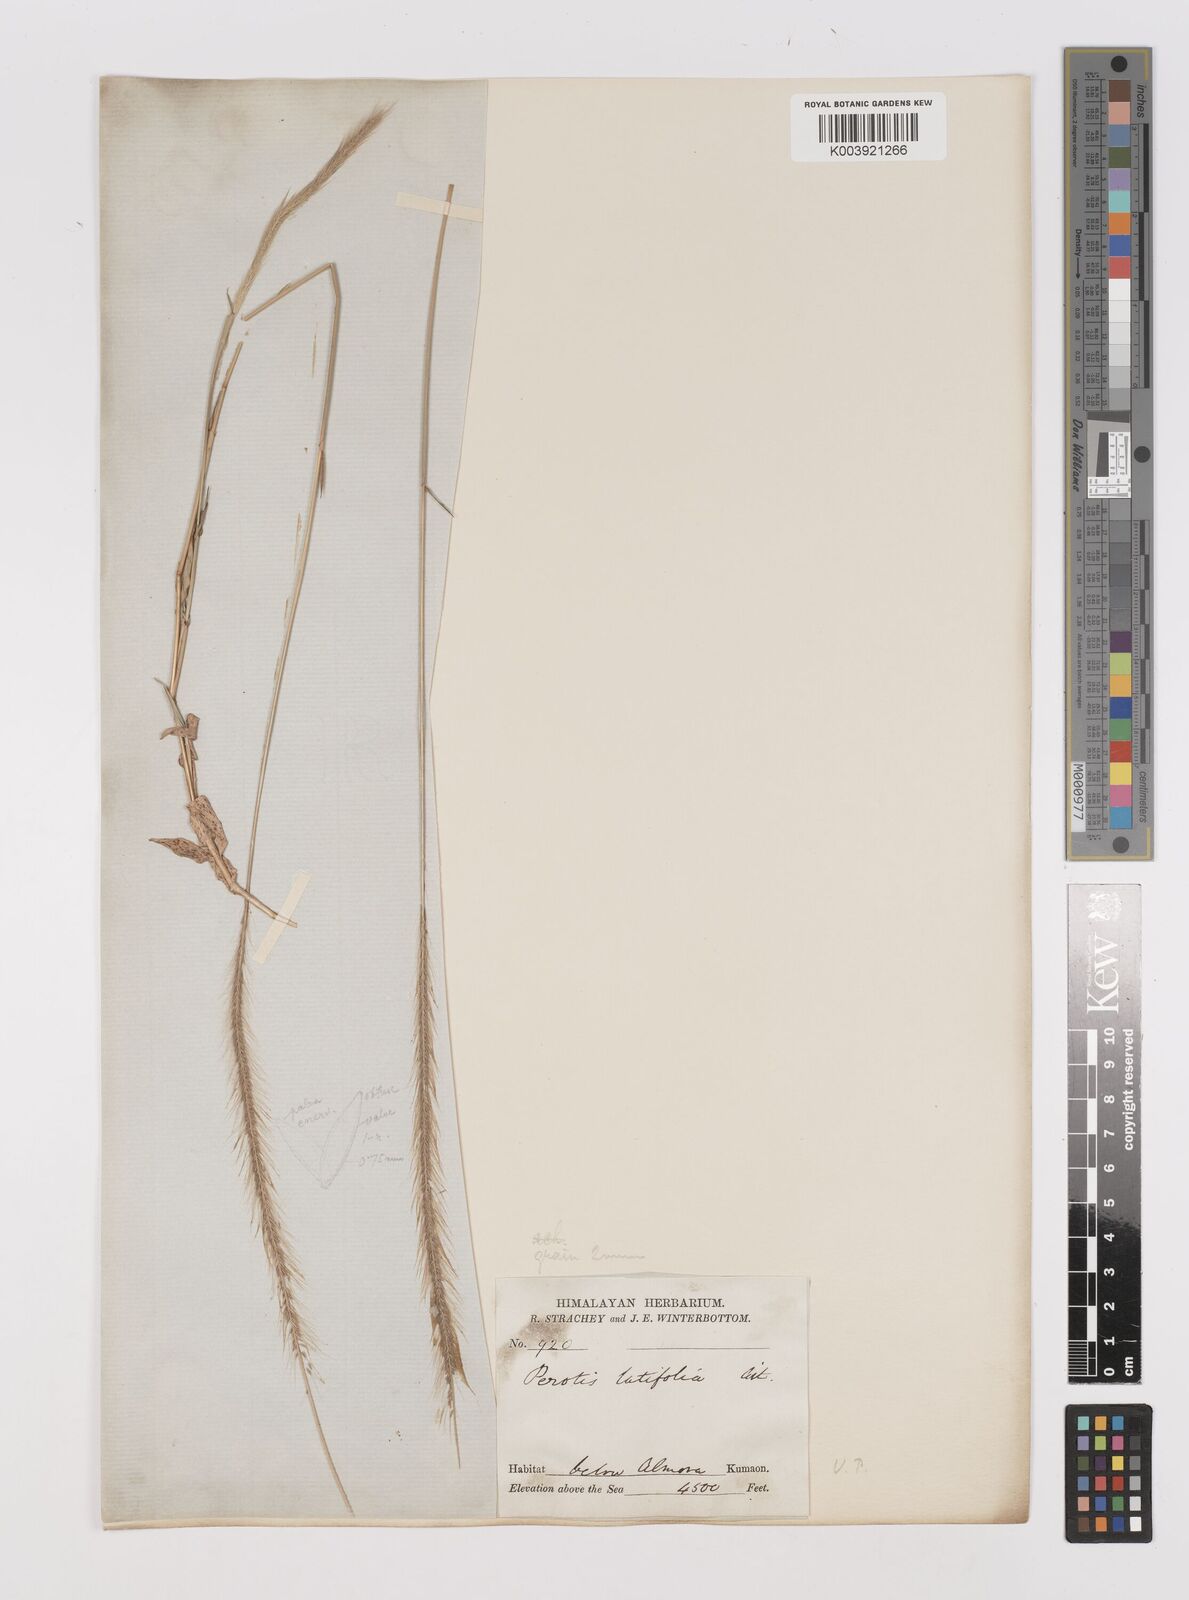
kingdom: Plantae
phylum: Tracheophyta
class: Liliopsida
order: Poales
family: Poaceae
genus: Perotis
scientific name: Perotis hordeiformis
